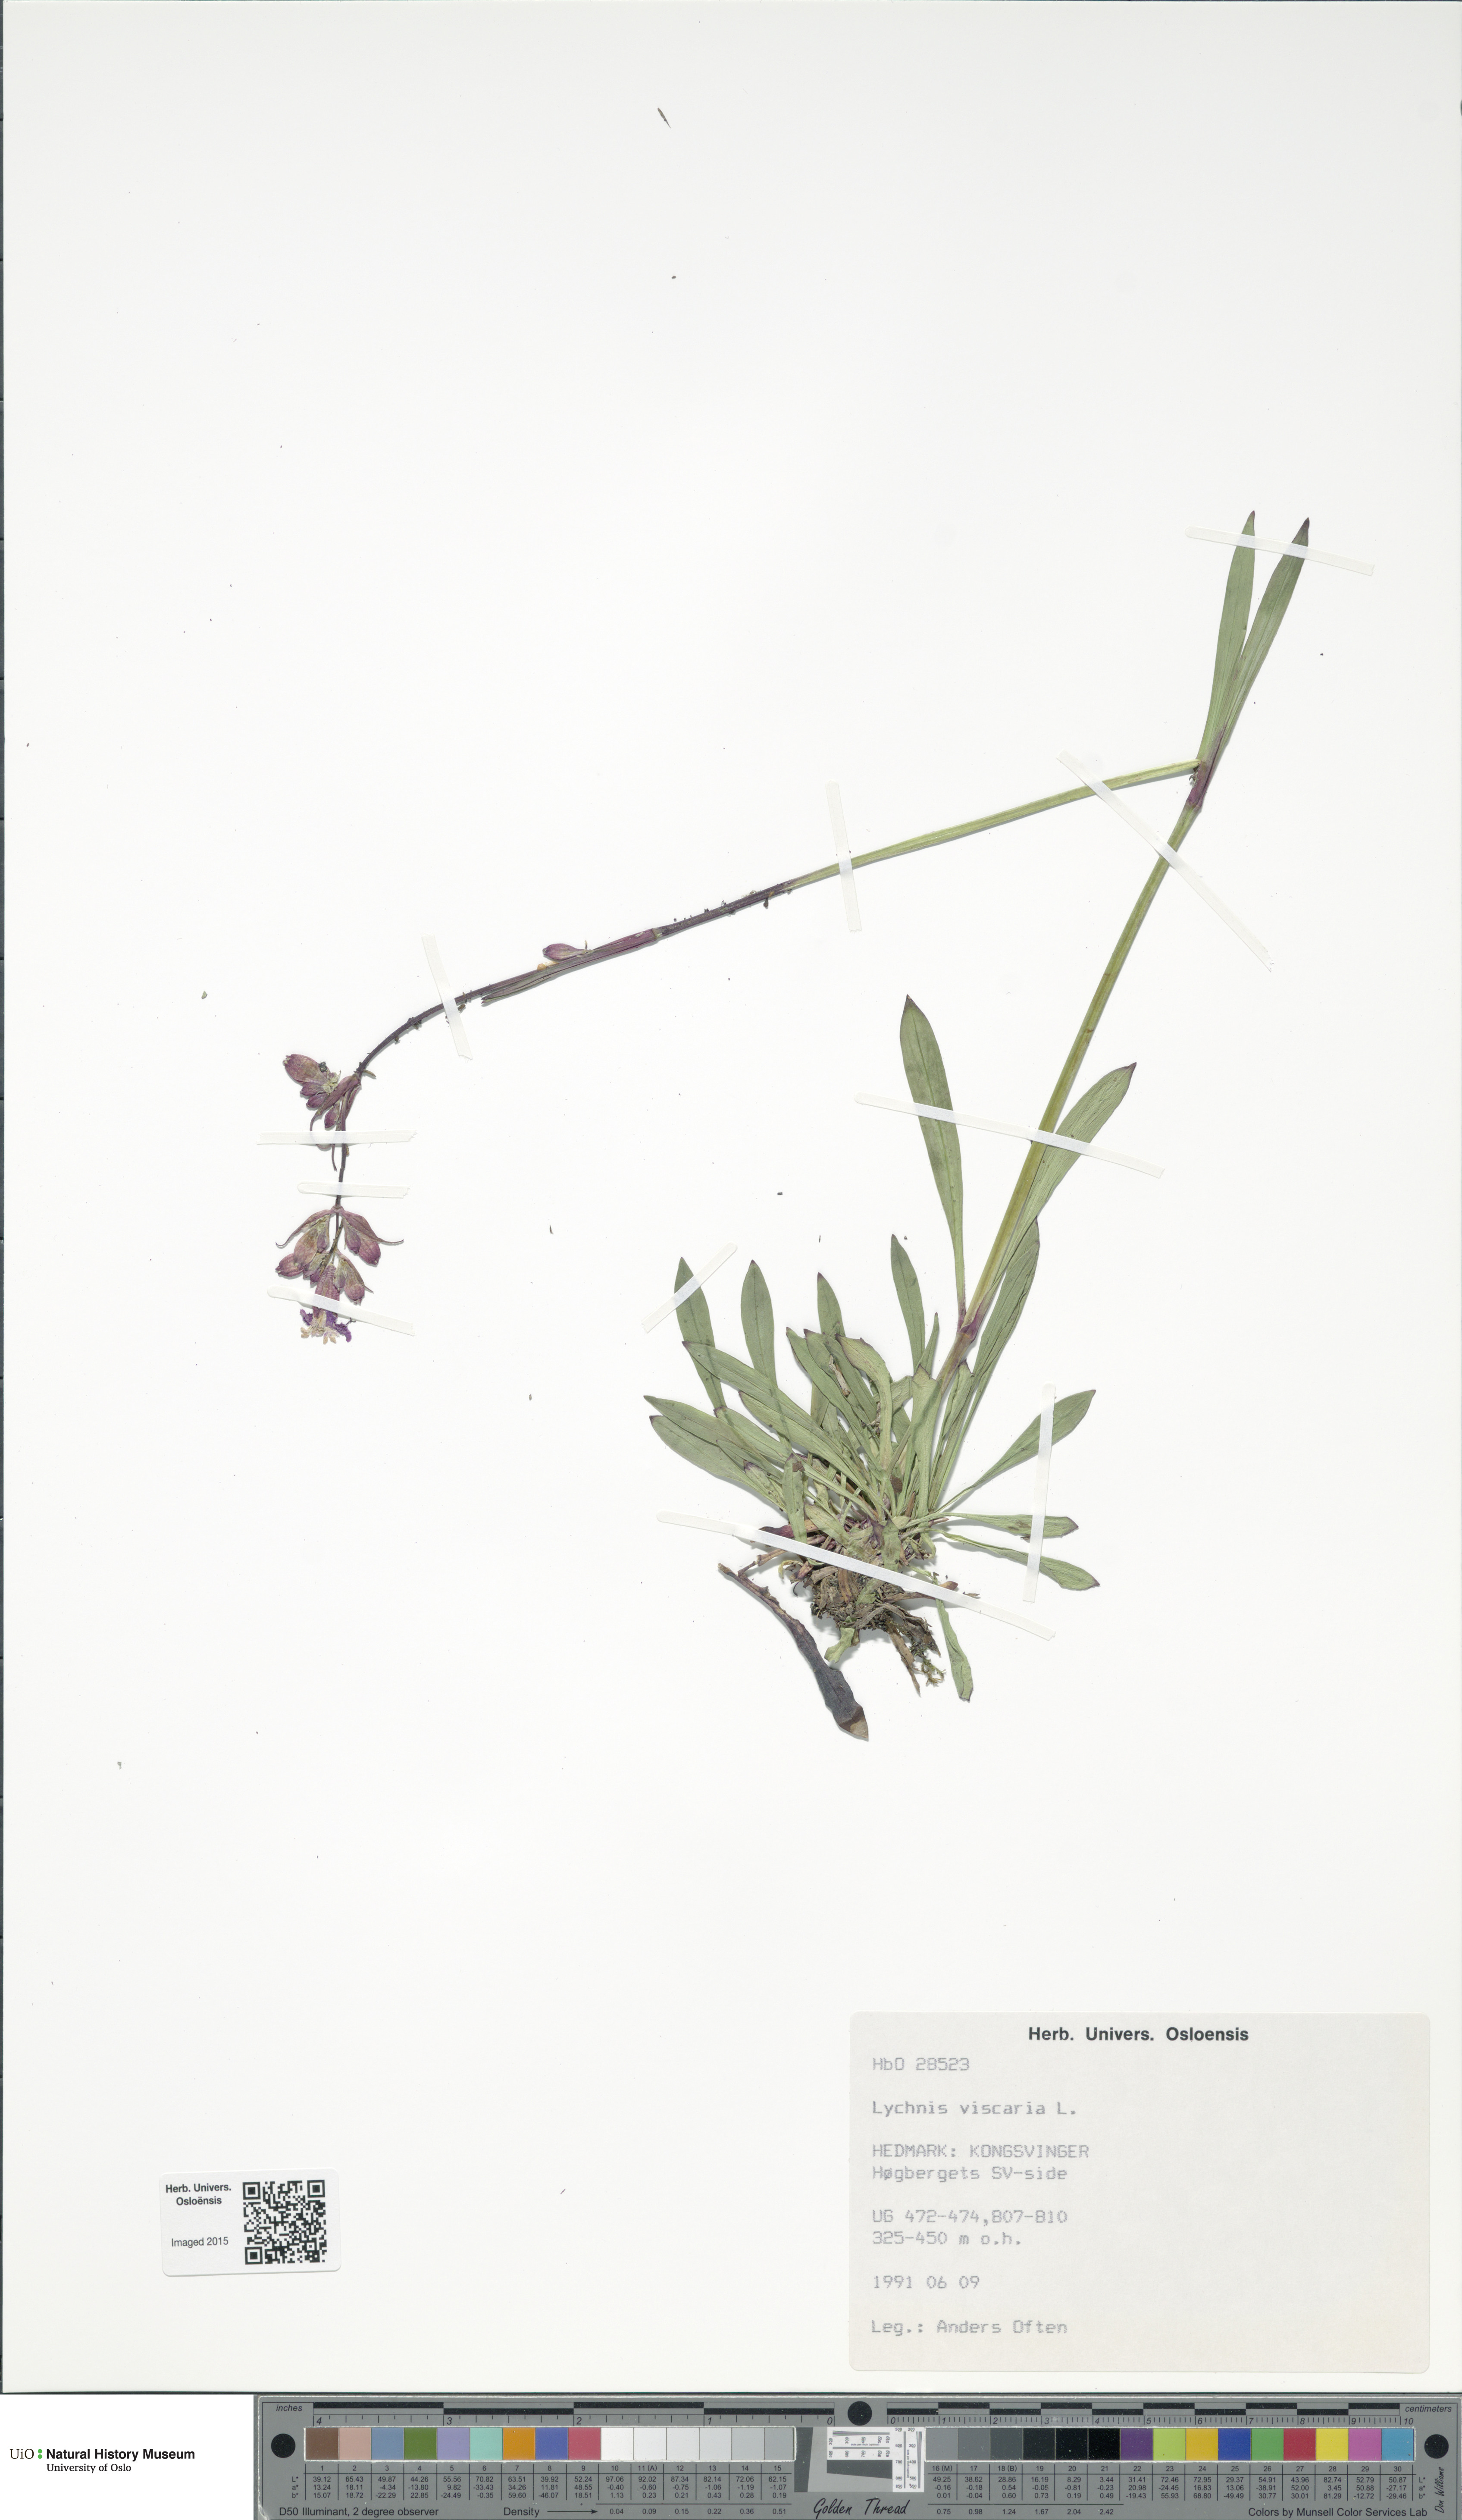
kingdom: Plantae
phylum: Tracheophyta
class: Magnoliopsida
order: Caryophyllales
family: Caryophyllaceae
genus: Viscaria
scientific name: Viscaria vulgaris
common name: Clammy campion
